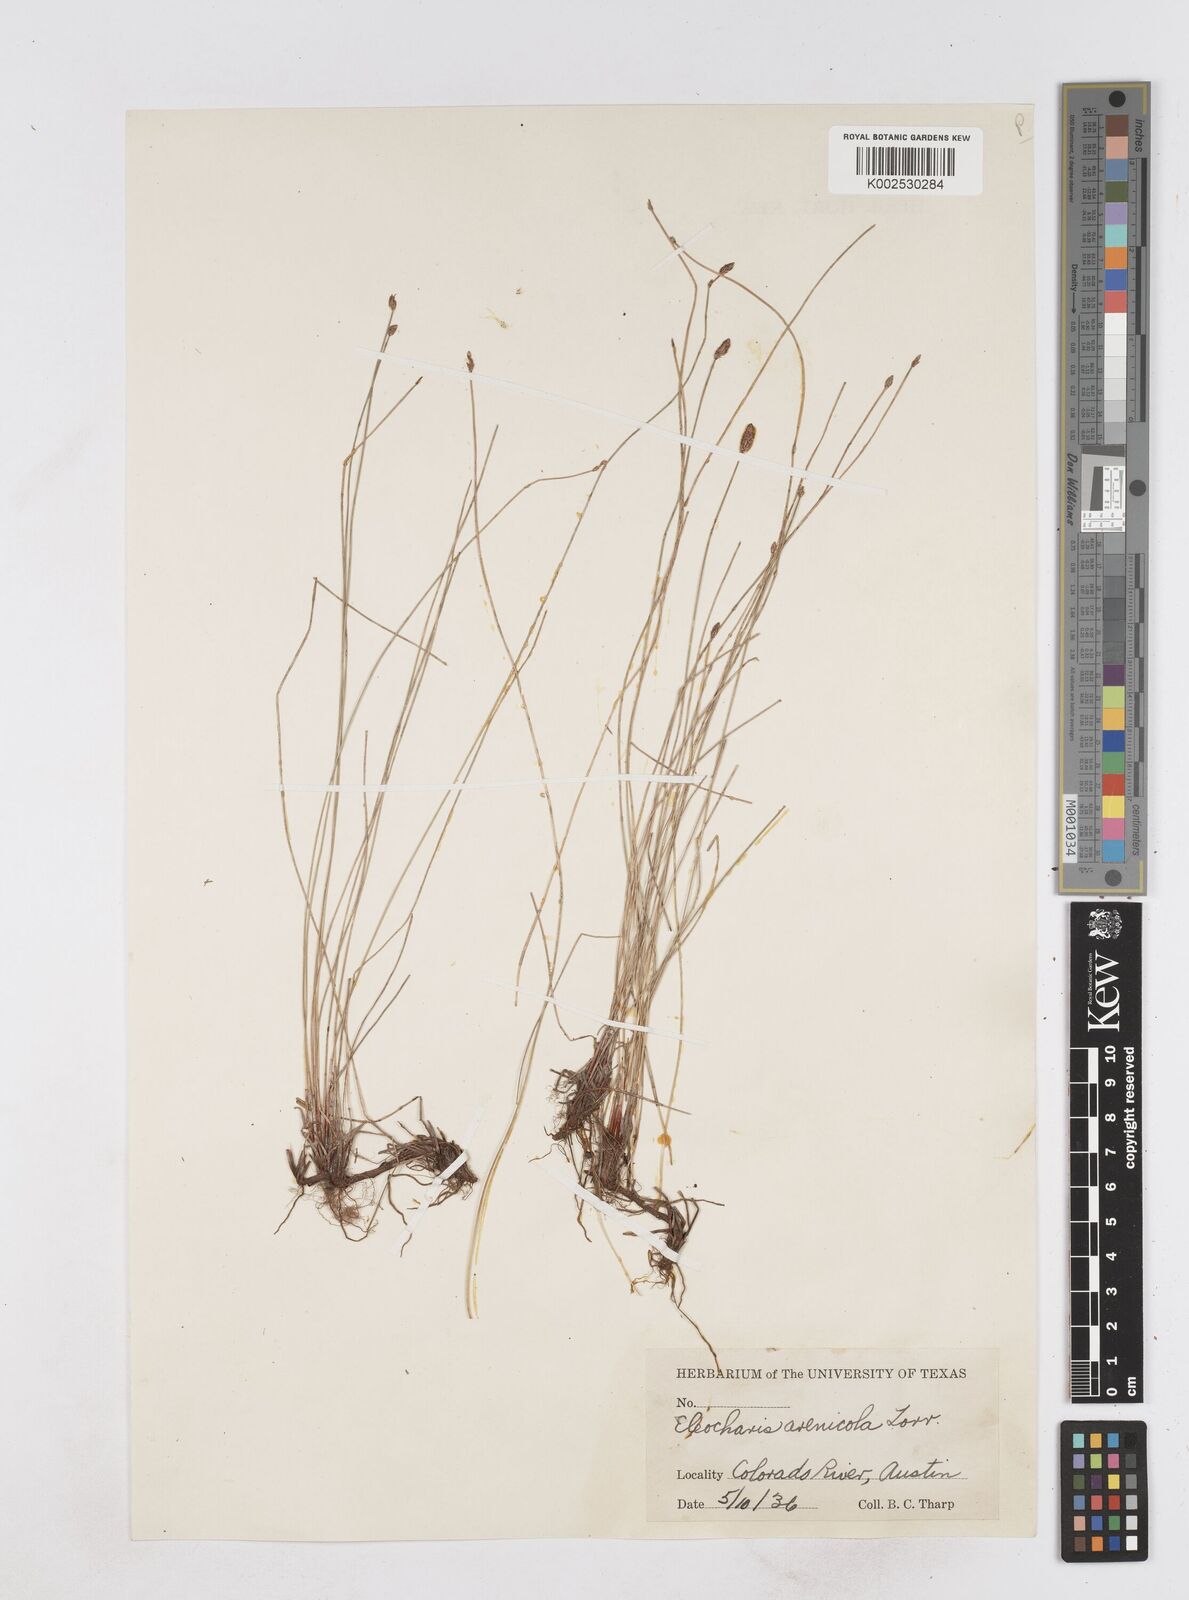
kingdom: Plantae
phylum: Tracheophyta
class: Liliopsida
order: Poales
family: Cyperaceae
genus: Eleocharis
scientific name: Eleocharis montevidensis
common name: Sand spike-rush
